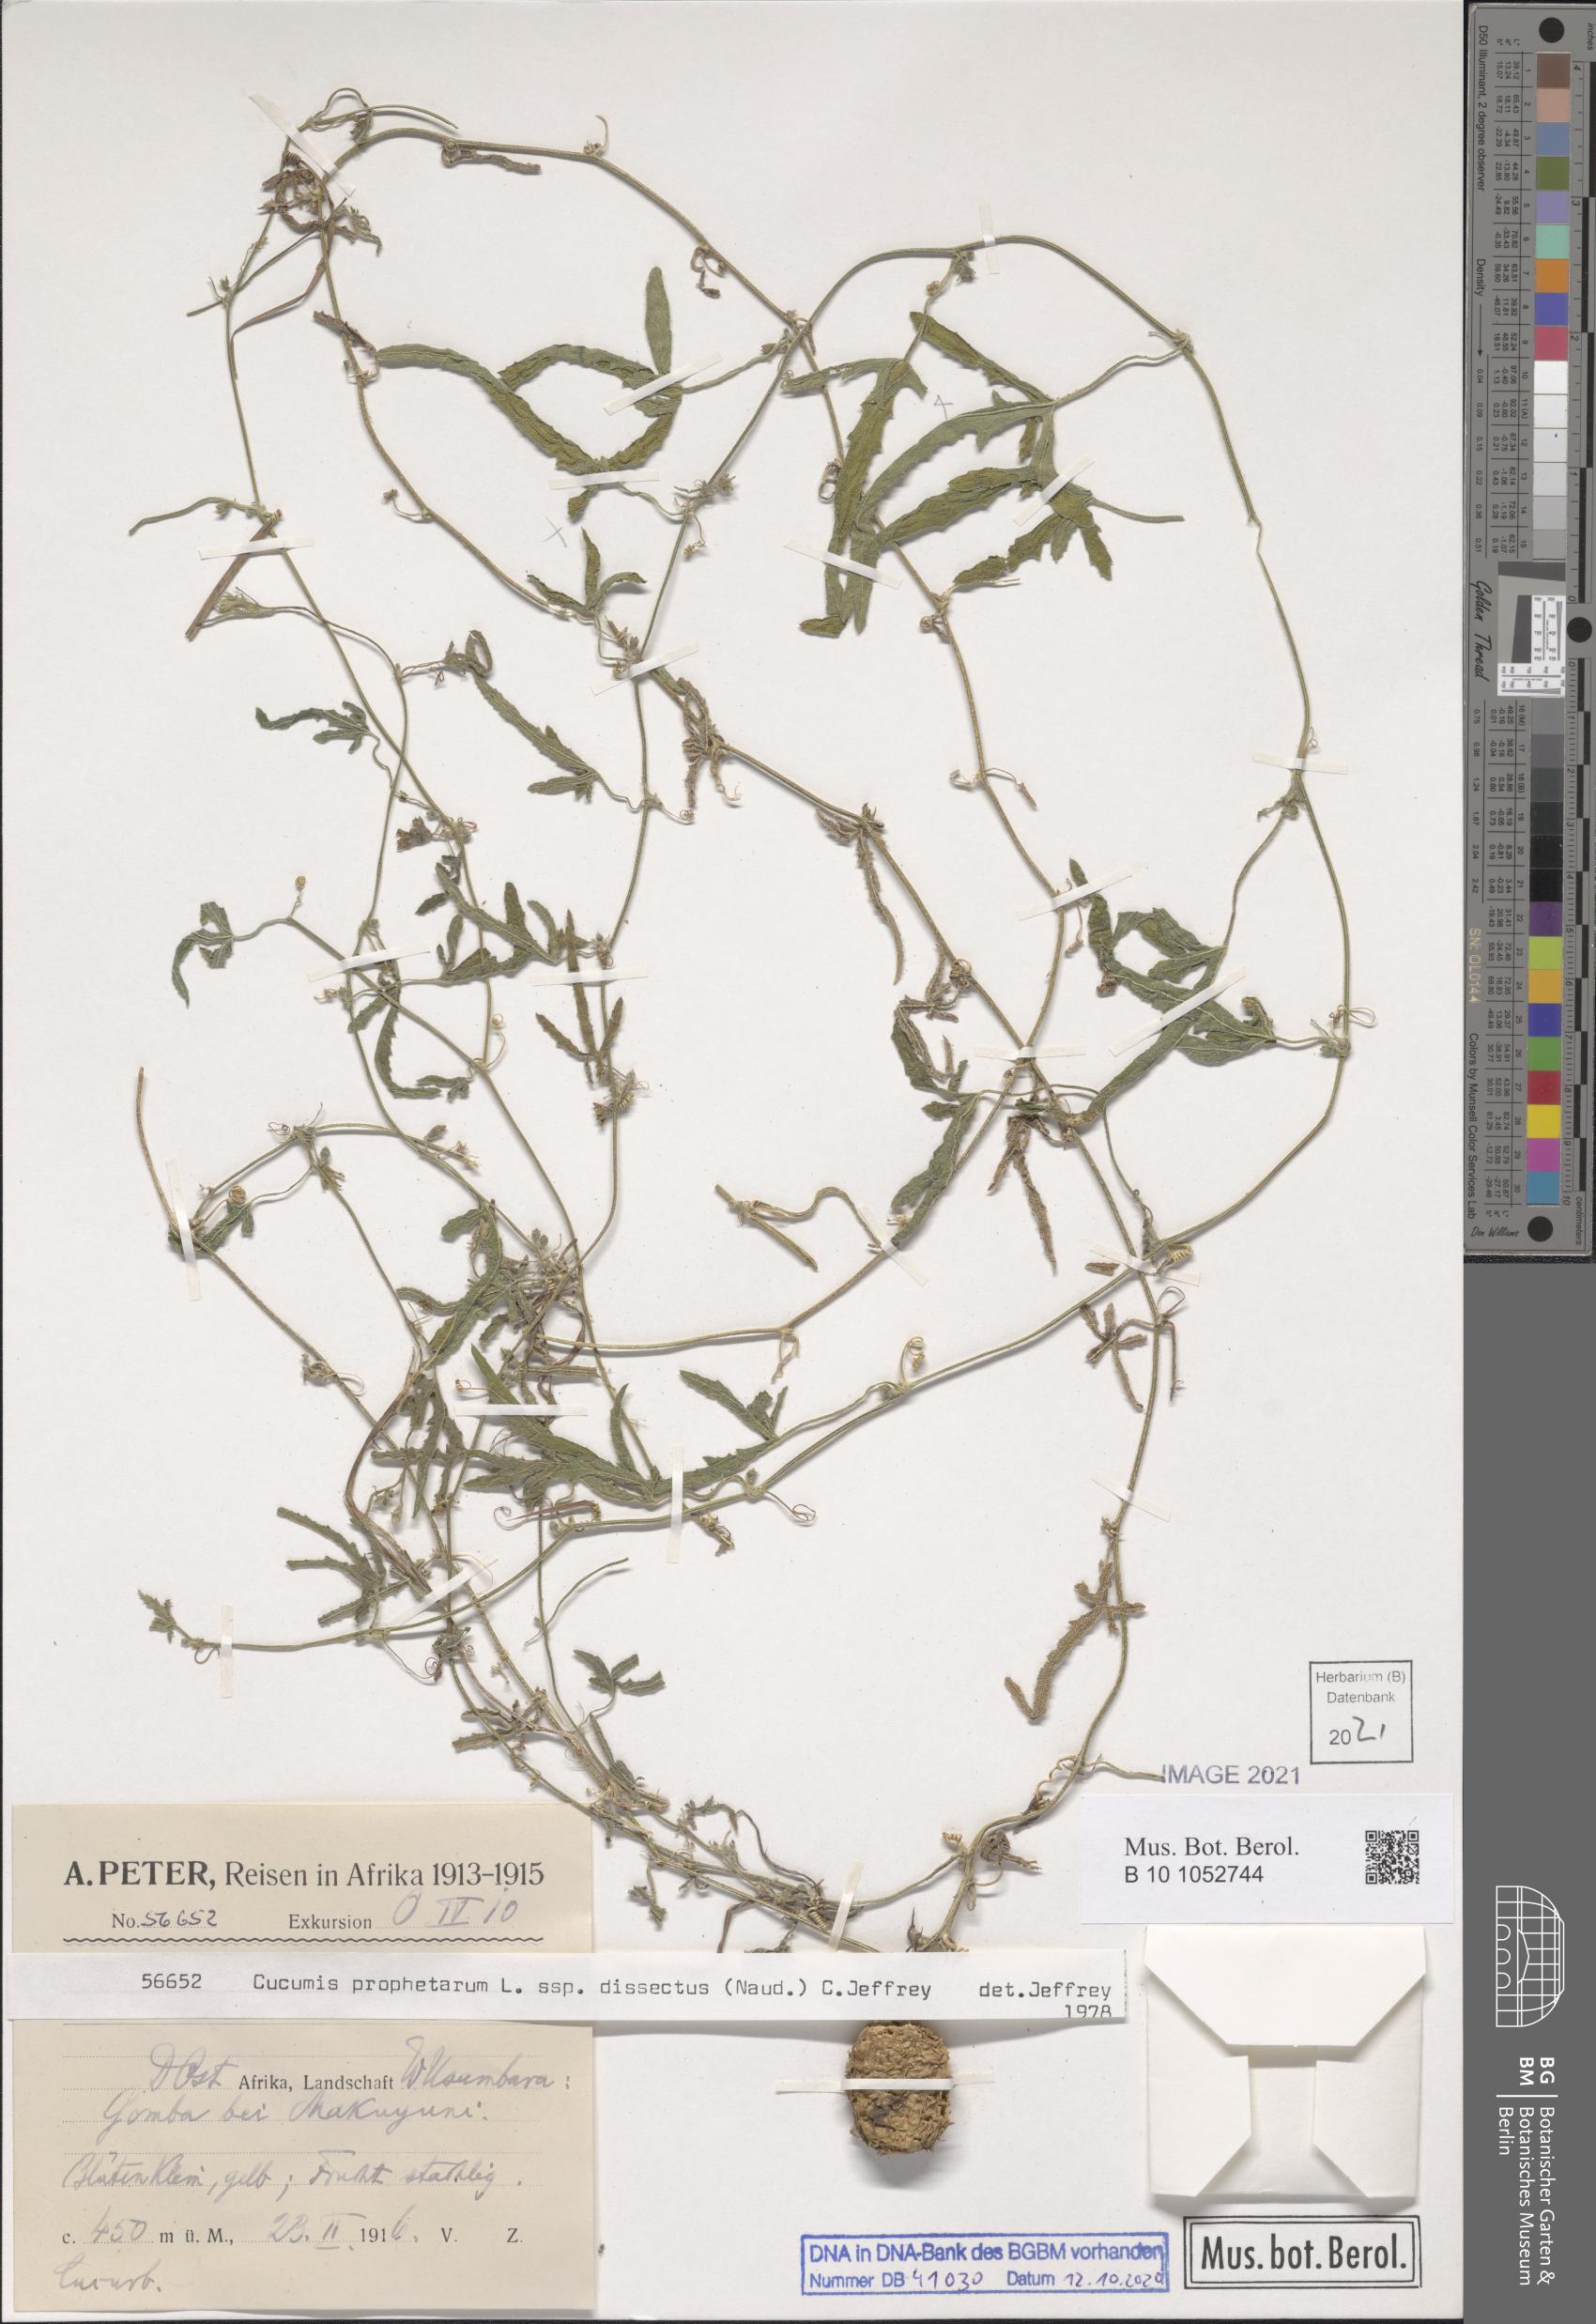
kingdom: Plantae
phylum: Tracheophyta
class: Magnoliopsida
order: Cucurbitales
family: Cucurbitaceae
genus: Cucumis
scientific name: Cucumis prophetarum
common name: Wild cucumber
